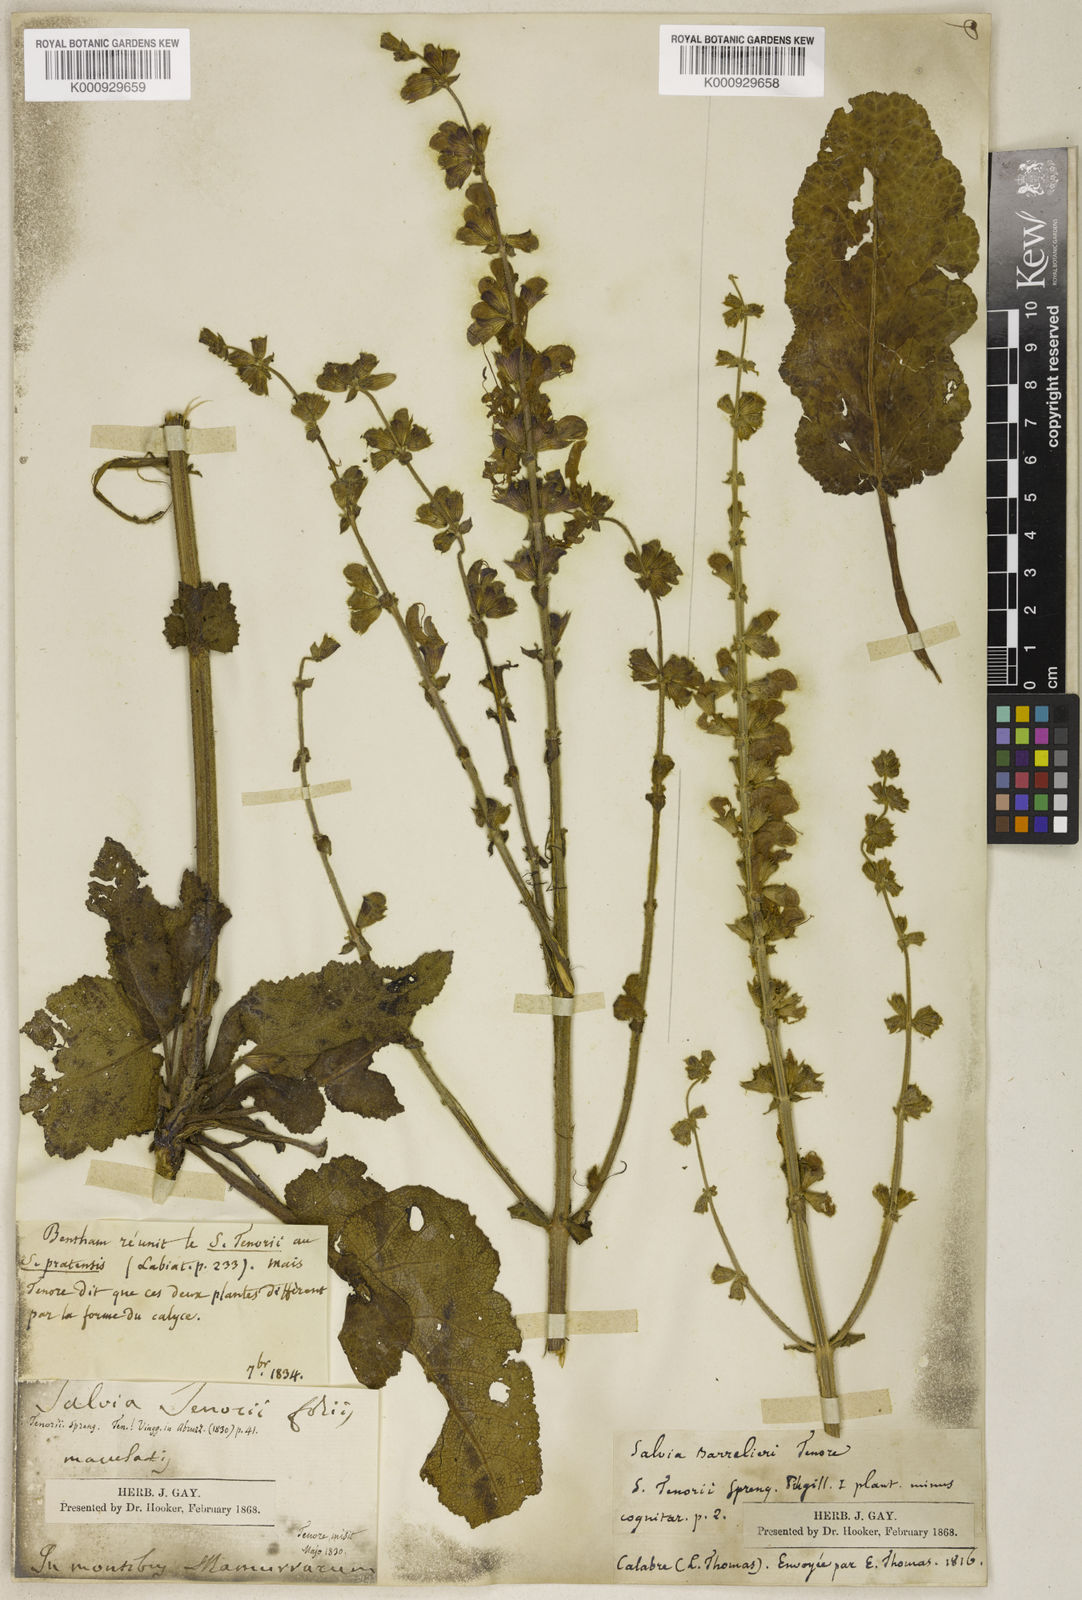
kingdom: Plantae
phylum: Tracheophyta
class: Magnoliopsida
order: Lamiales
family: Lamiaceae
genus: Salvia
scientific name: Salvia pratensis
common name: Meadow sage
